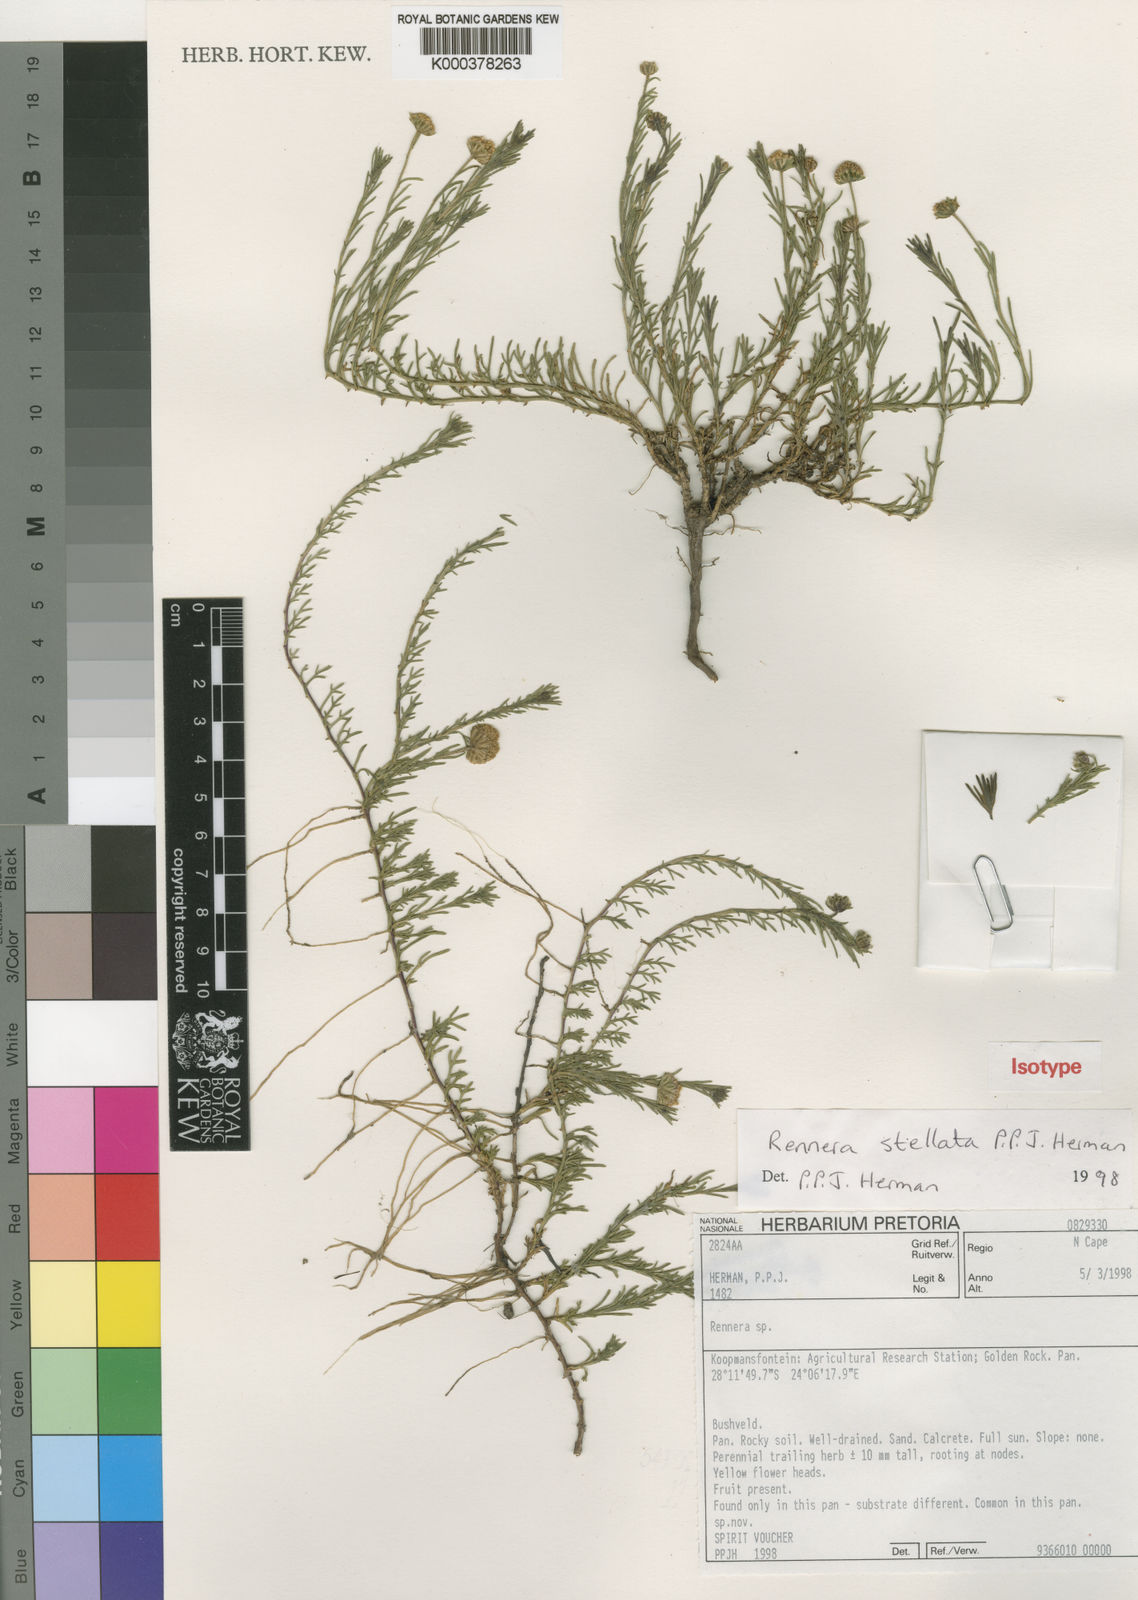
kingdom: Plantae
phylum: Tracheophyta
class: Magnoliopsida
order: Asterales
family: Asteraceae
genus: Pentzia
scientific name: Pentzia stellata
